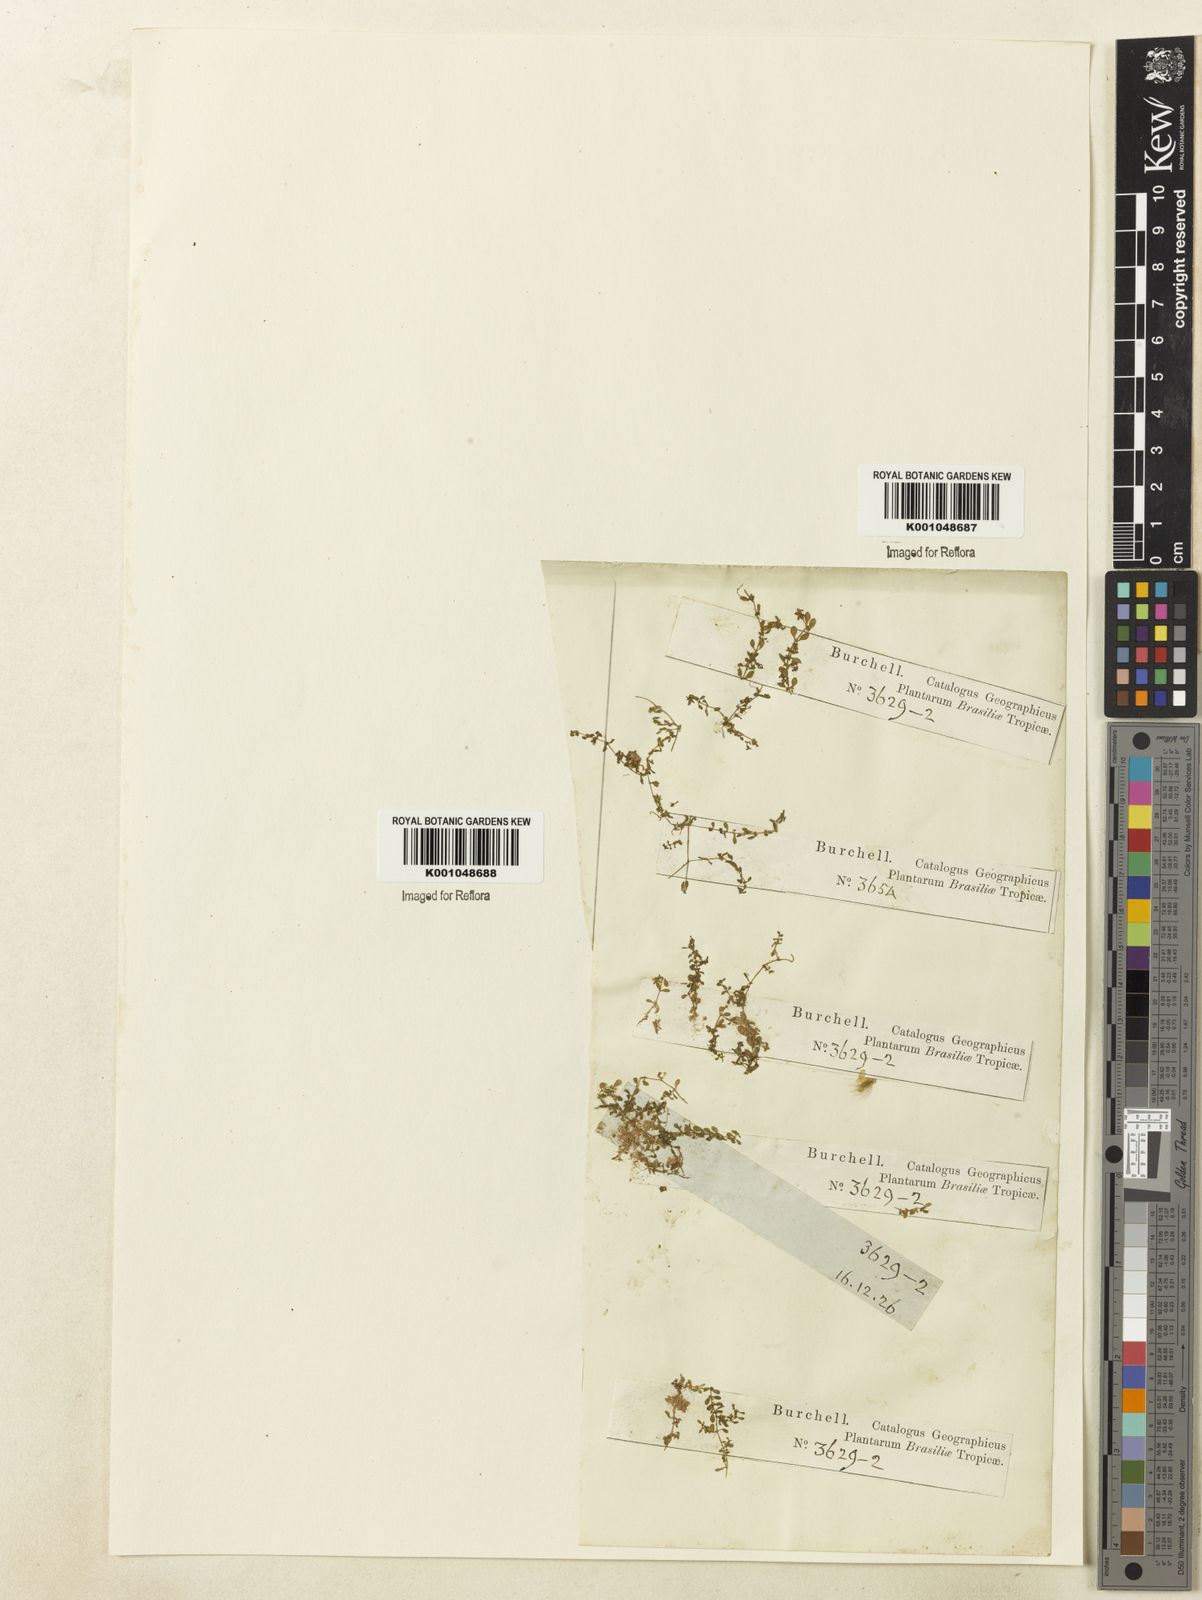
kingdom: Plantae
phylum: Tracheophyta
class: Magnoliopsida
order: Lamiales
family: Plantaginaceae
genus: Callitriche
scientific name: Callitriche peploides
